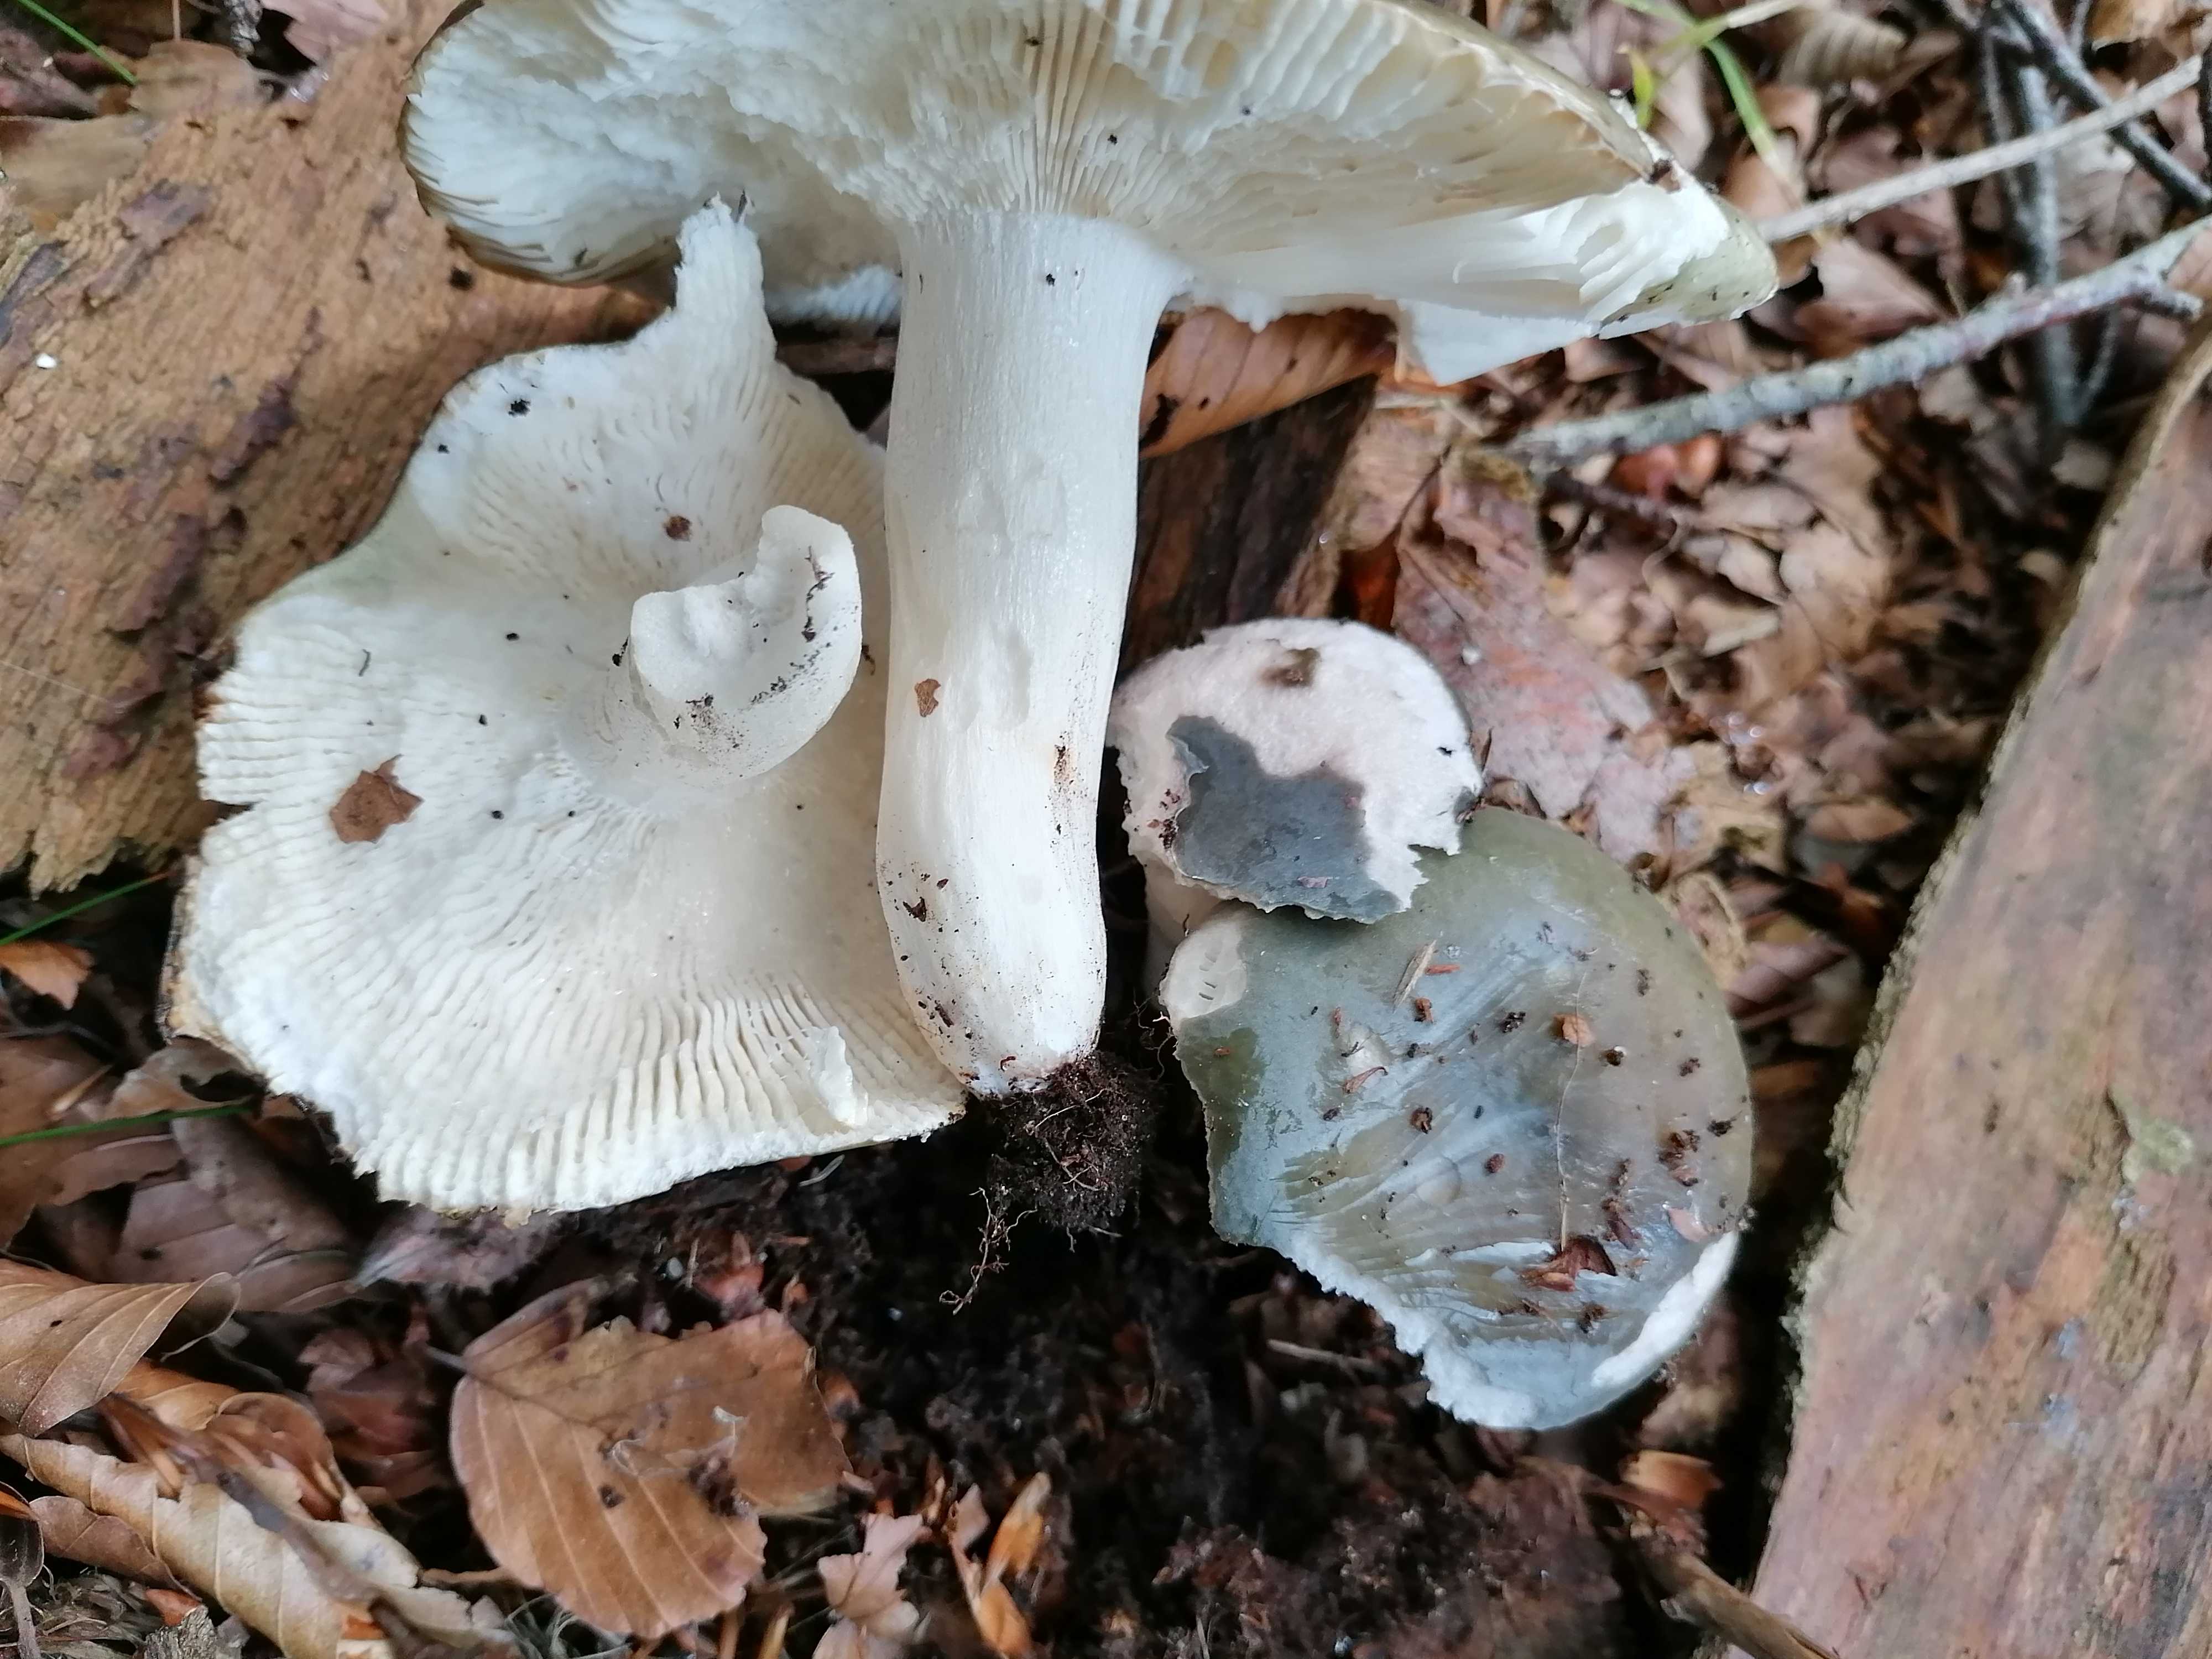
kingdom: Fungi
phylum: Basidiomycota
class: Agaricomycetes
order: Russulales
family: Russulaceae
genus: Russula
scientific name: Russula
